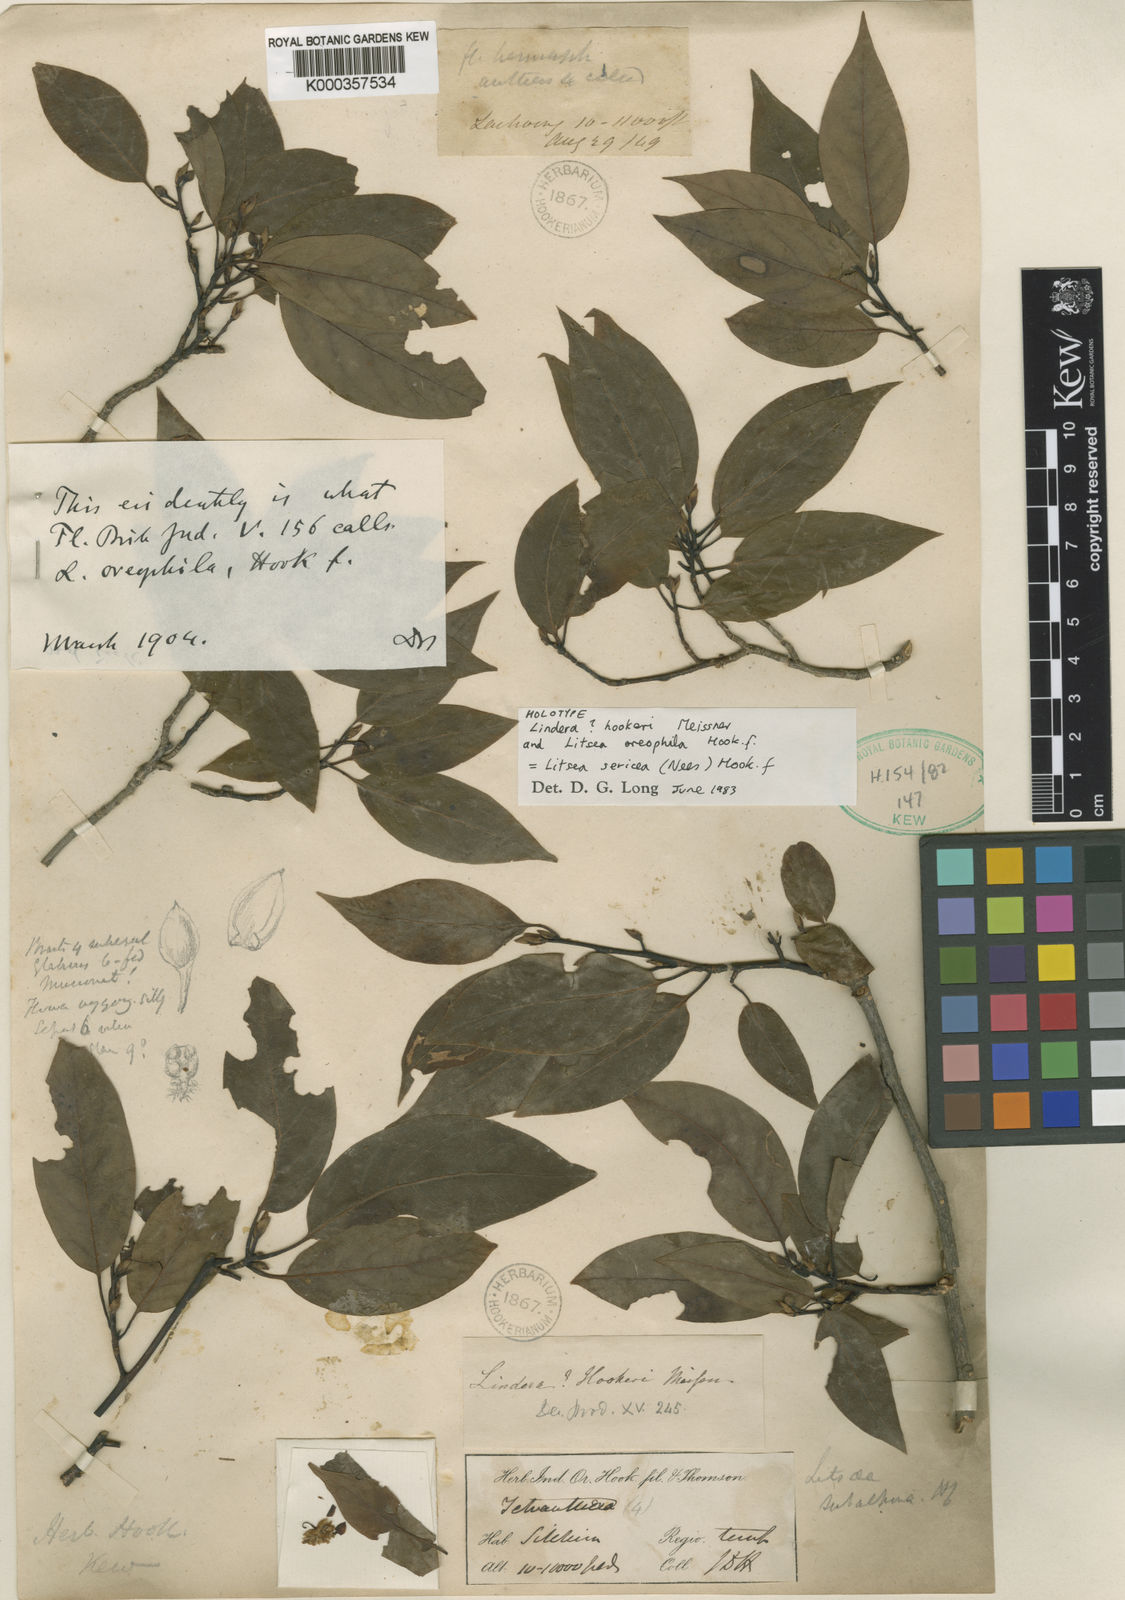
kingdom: Plantae
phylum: Tracheophyta
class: Magnoliopsida
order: Laurales
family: Lauraceae
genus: Litsea
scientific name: Litsea himalayensis
